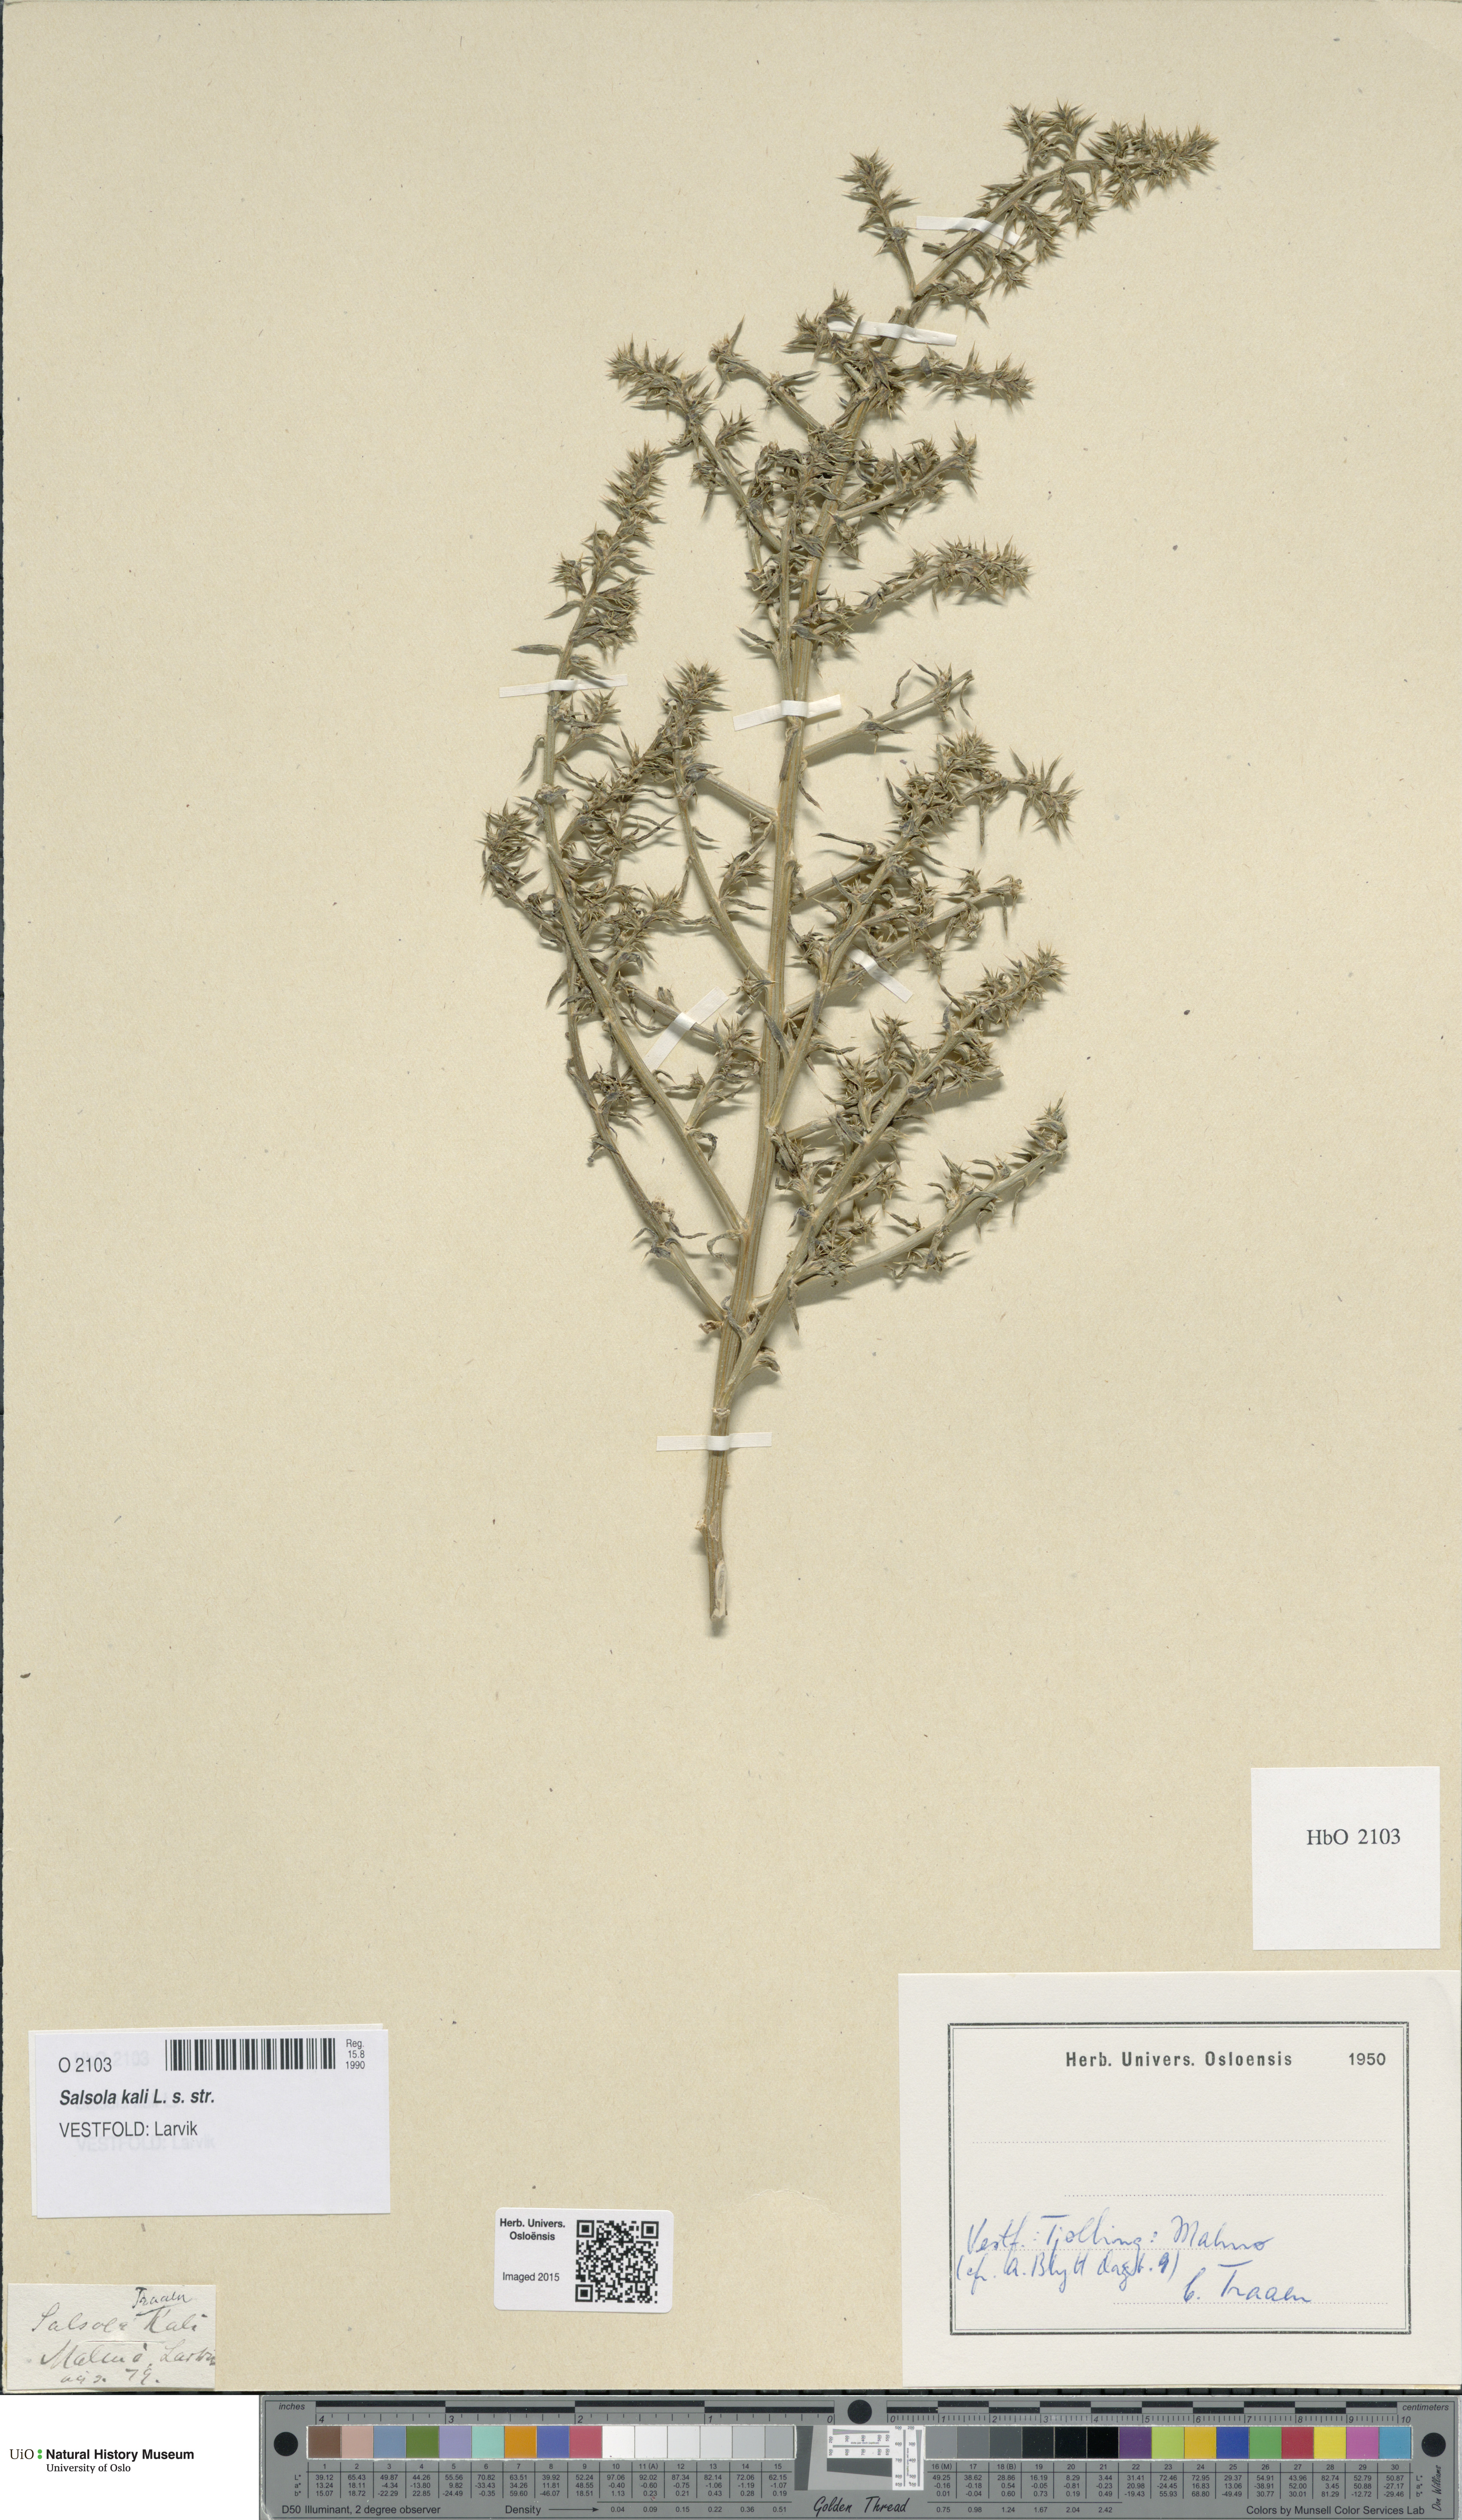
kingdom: Plantae
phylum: Tracheophyta
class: Magnoliopsida
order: Caryophyllales
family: Amaranthaceae
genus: Salsola
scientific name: Salsola kali
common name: Saltwort
